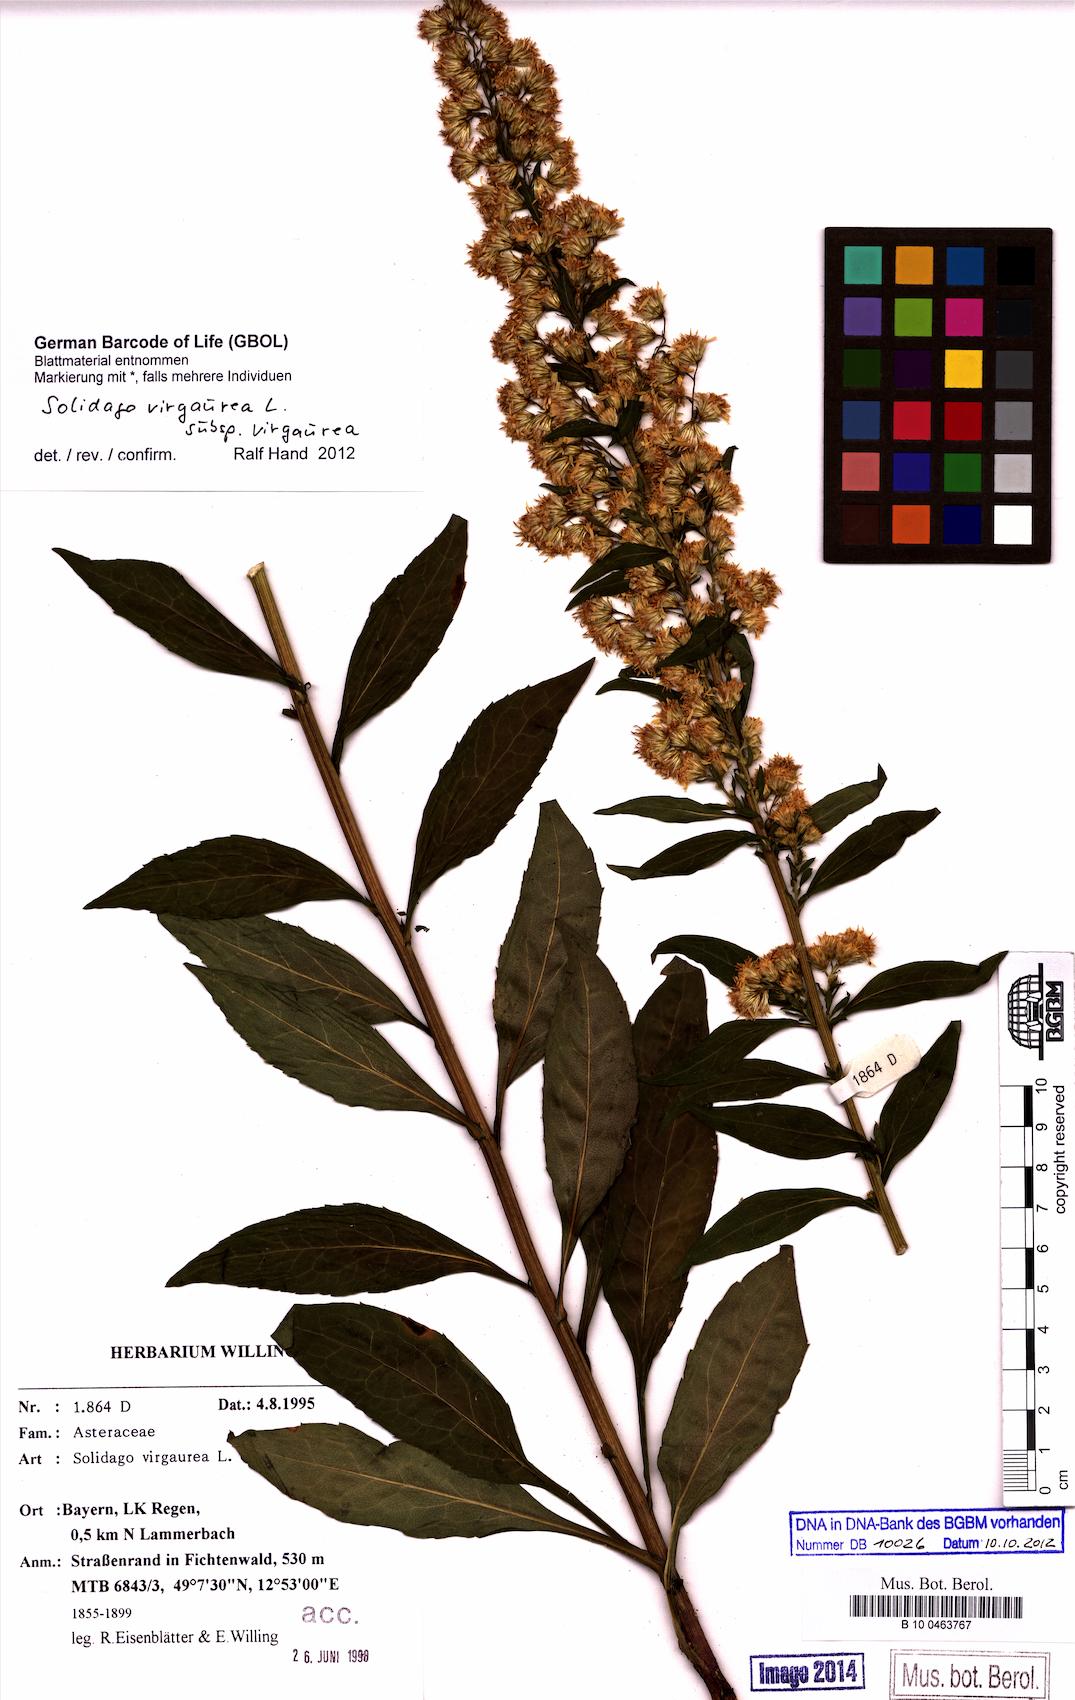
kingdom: Plantae
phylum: Tracheophyta
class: Magnoliopsida
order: Asterales
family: Asteraceae
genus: Solidago
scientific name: Solidago virgaurea
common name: Goldenrod
